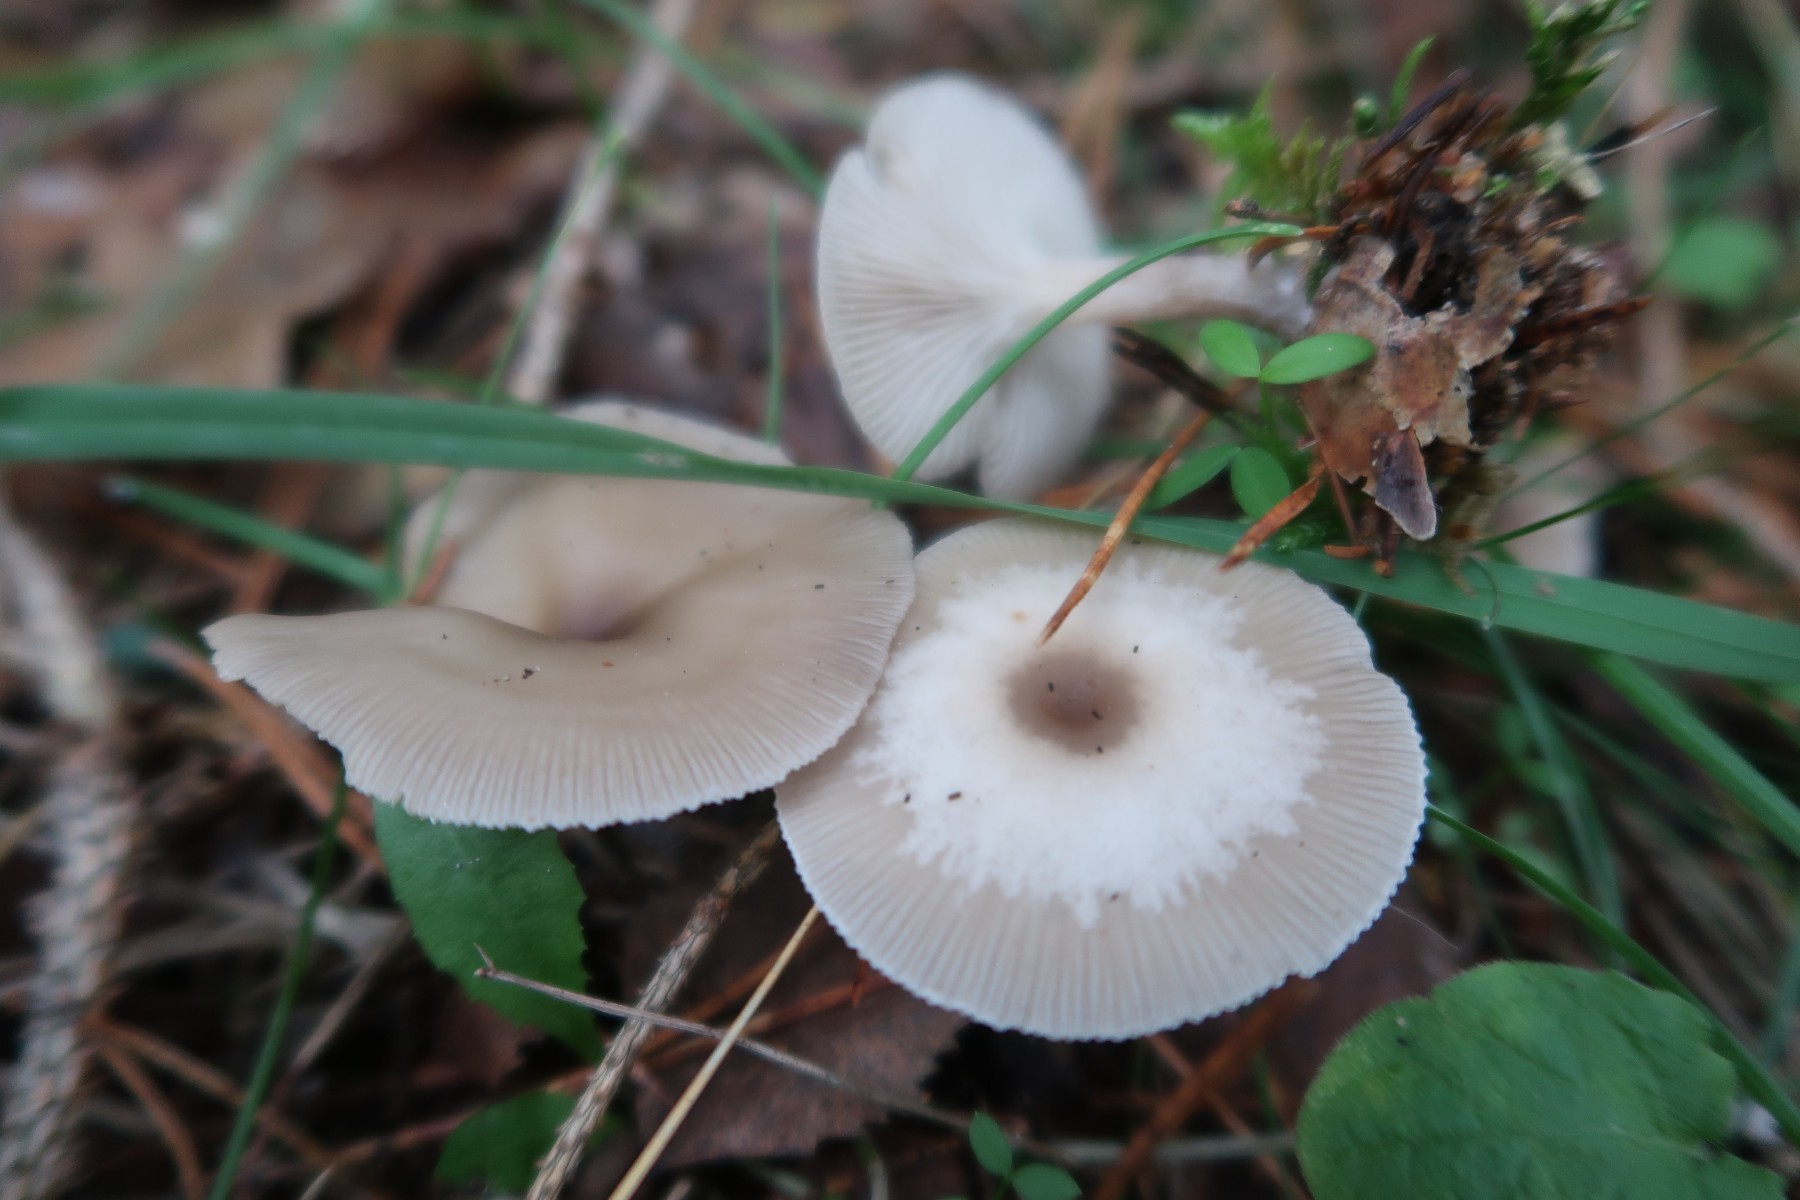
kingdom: Fungi
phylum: Basidiomycota
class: Agaricomycetes
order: Agaricales
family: Tricholomataceae
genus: Clitocybe
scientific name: Clitocybe metachroa
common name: grå tragthat
